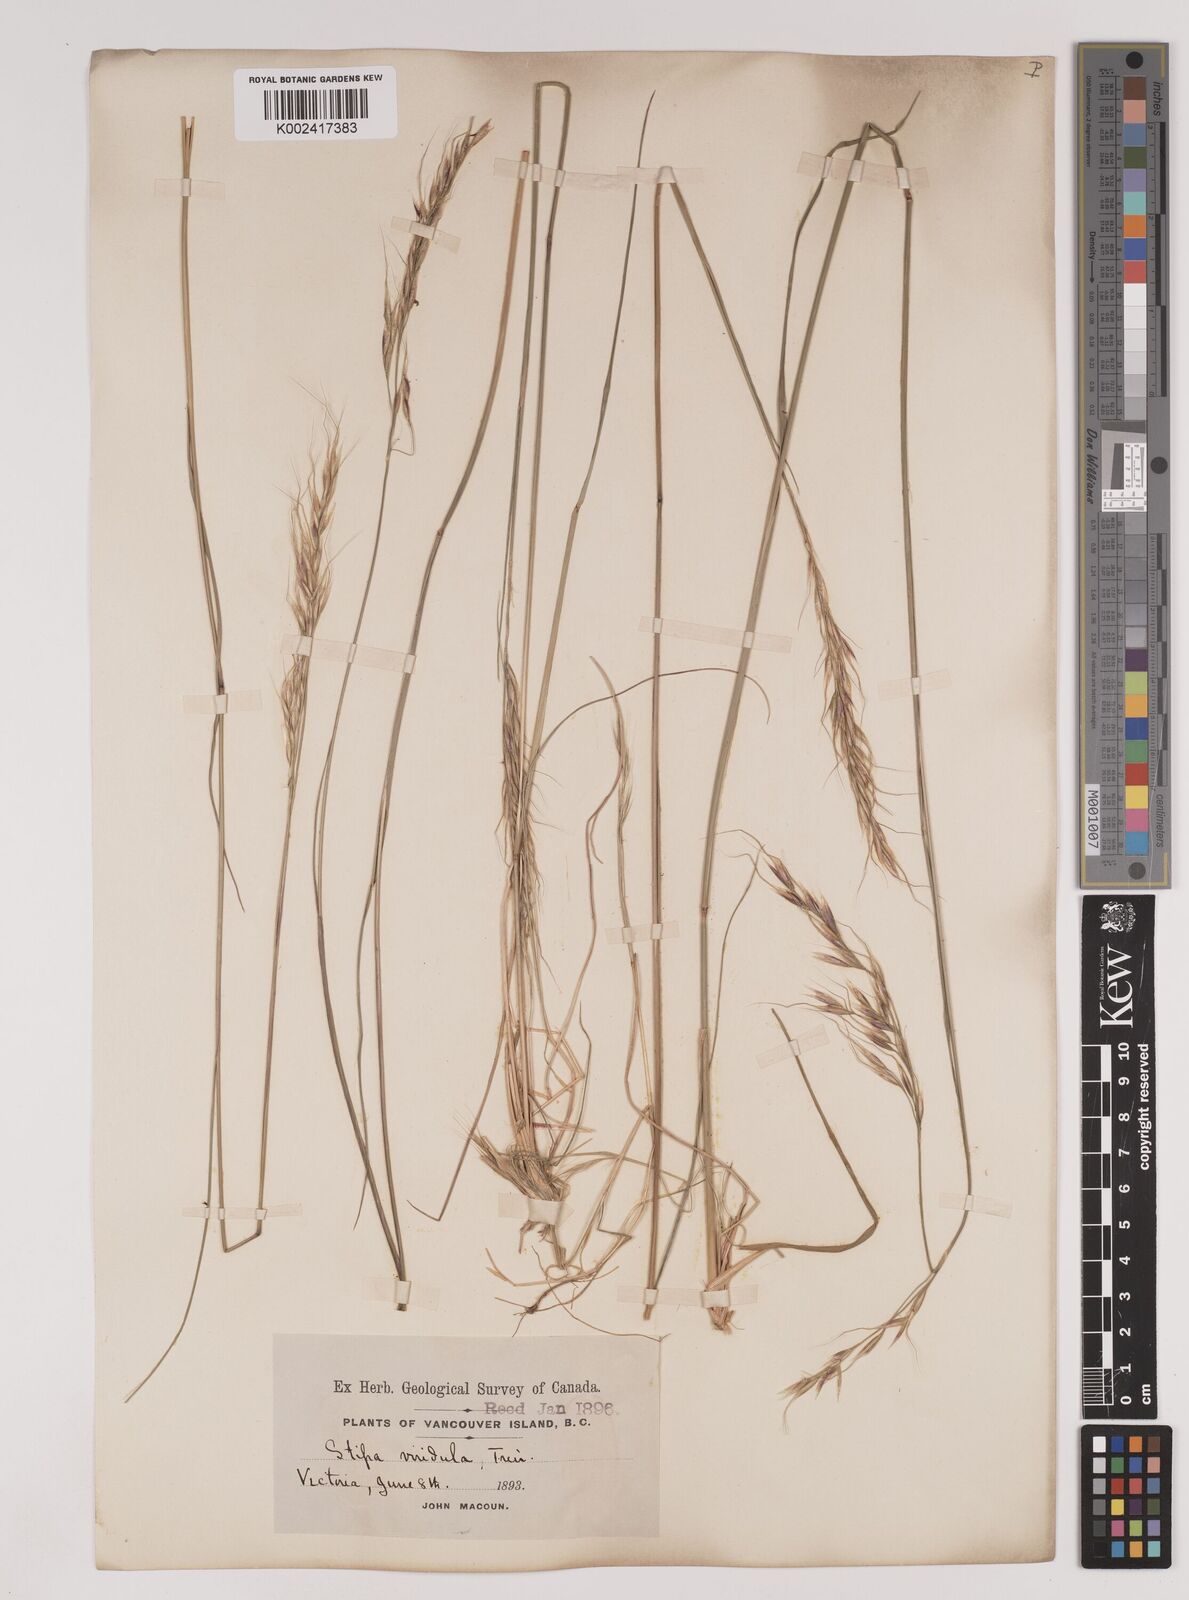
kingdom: Plantae
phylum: Tracheophyta
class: Liliopsida
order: Poales
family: Poaceae
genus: Nassella
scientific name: Nassella viridula
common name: Green needlegrass
